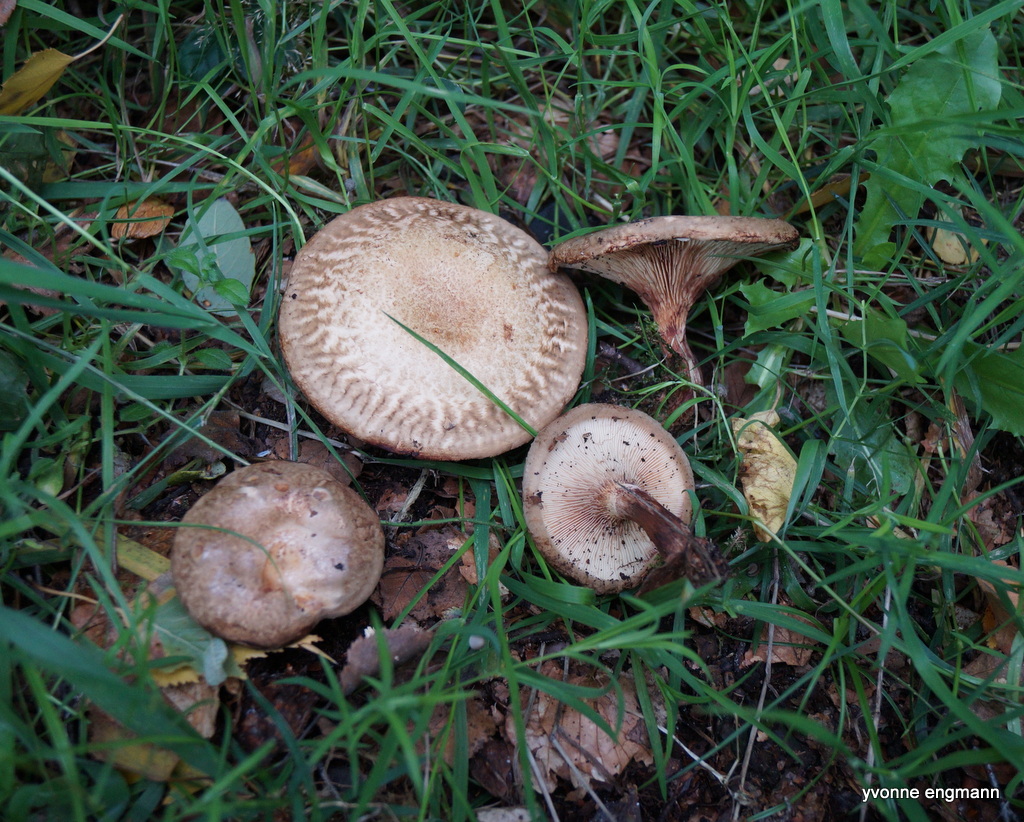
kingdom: Fungi
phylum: Basidiomycota
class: Agaricomycetes
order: Boletales
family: Paxillaceae
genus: Paxillus
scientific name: Paxillus involutus
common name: almindelig netbladhat
